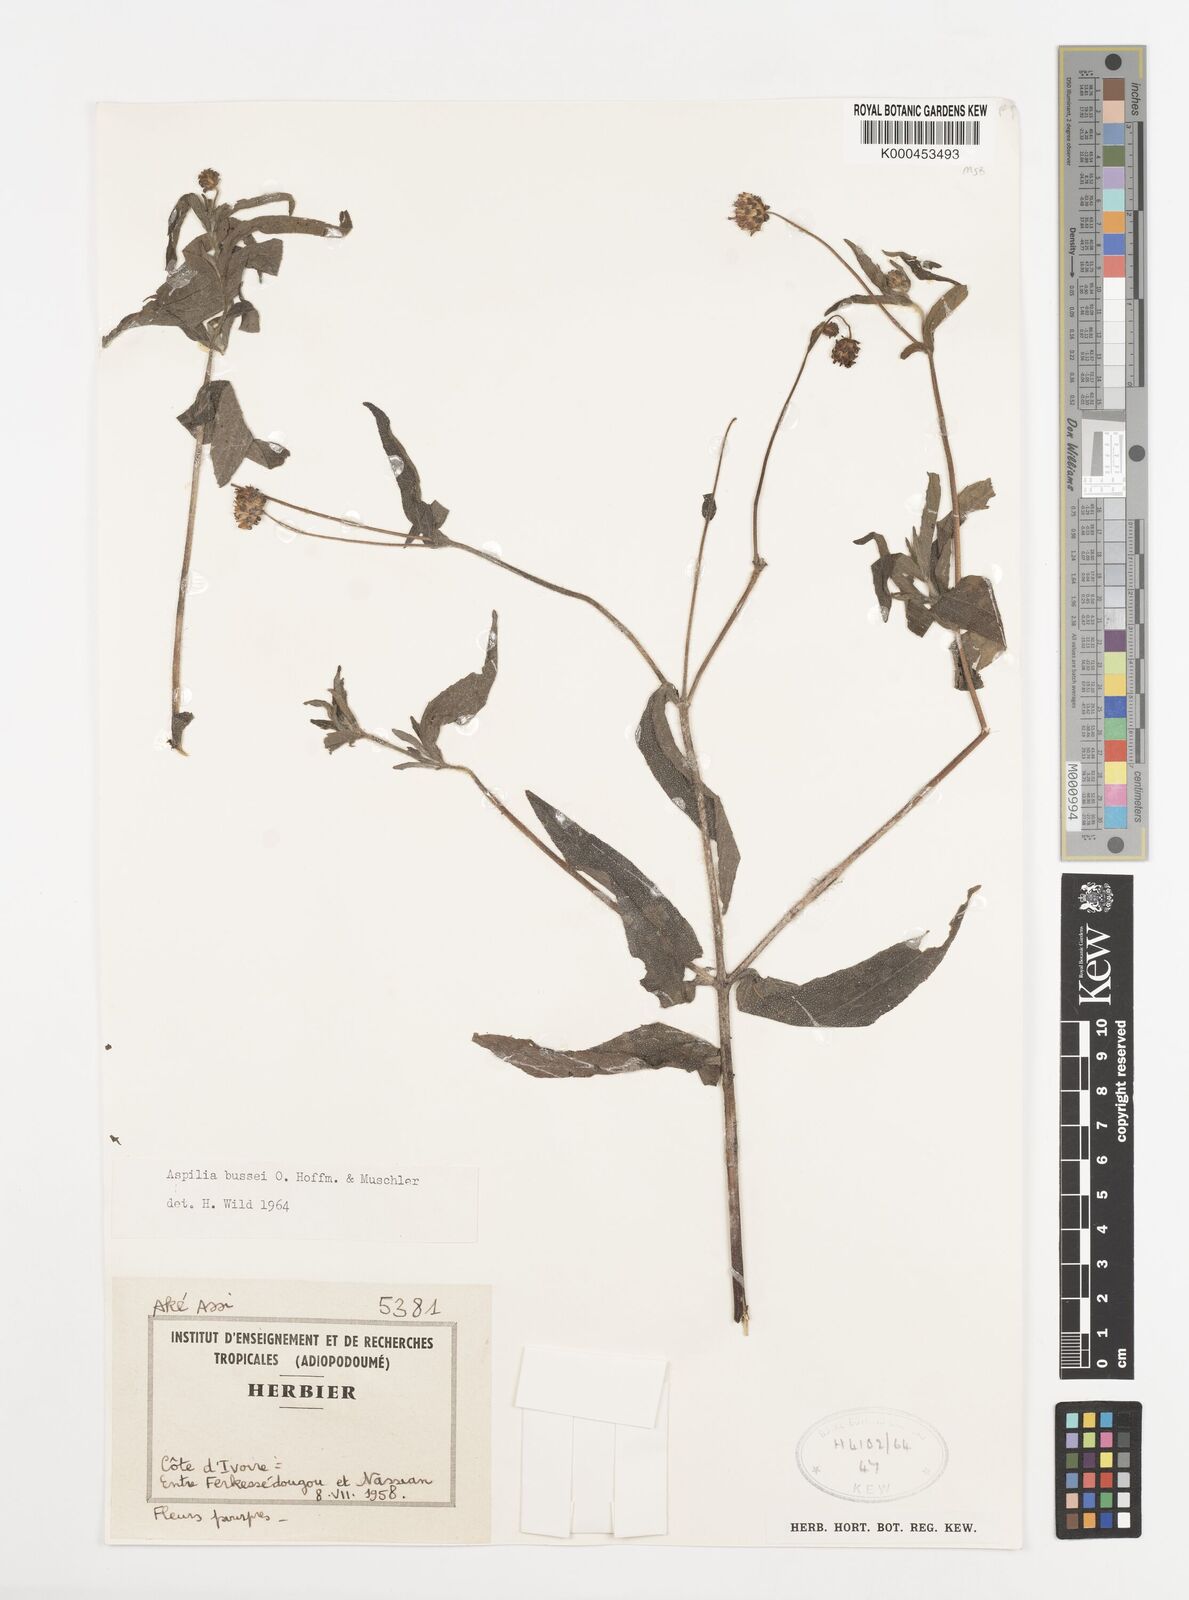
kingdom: Plantae
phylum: Tracheophyta
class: Magnoliopsida
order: Asterales
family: Asteraceae
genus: Aspilia
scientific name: Aspilia bussei
